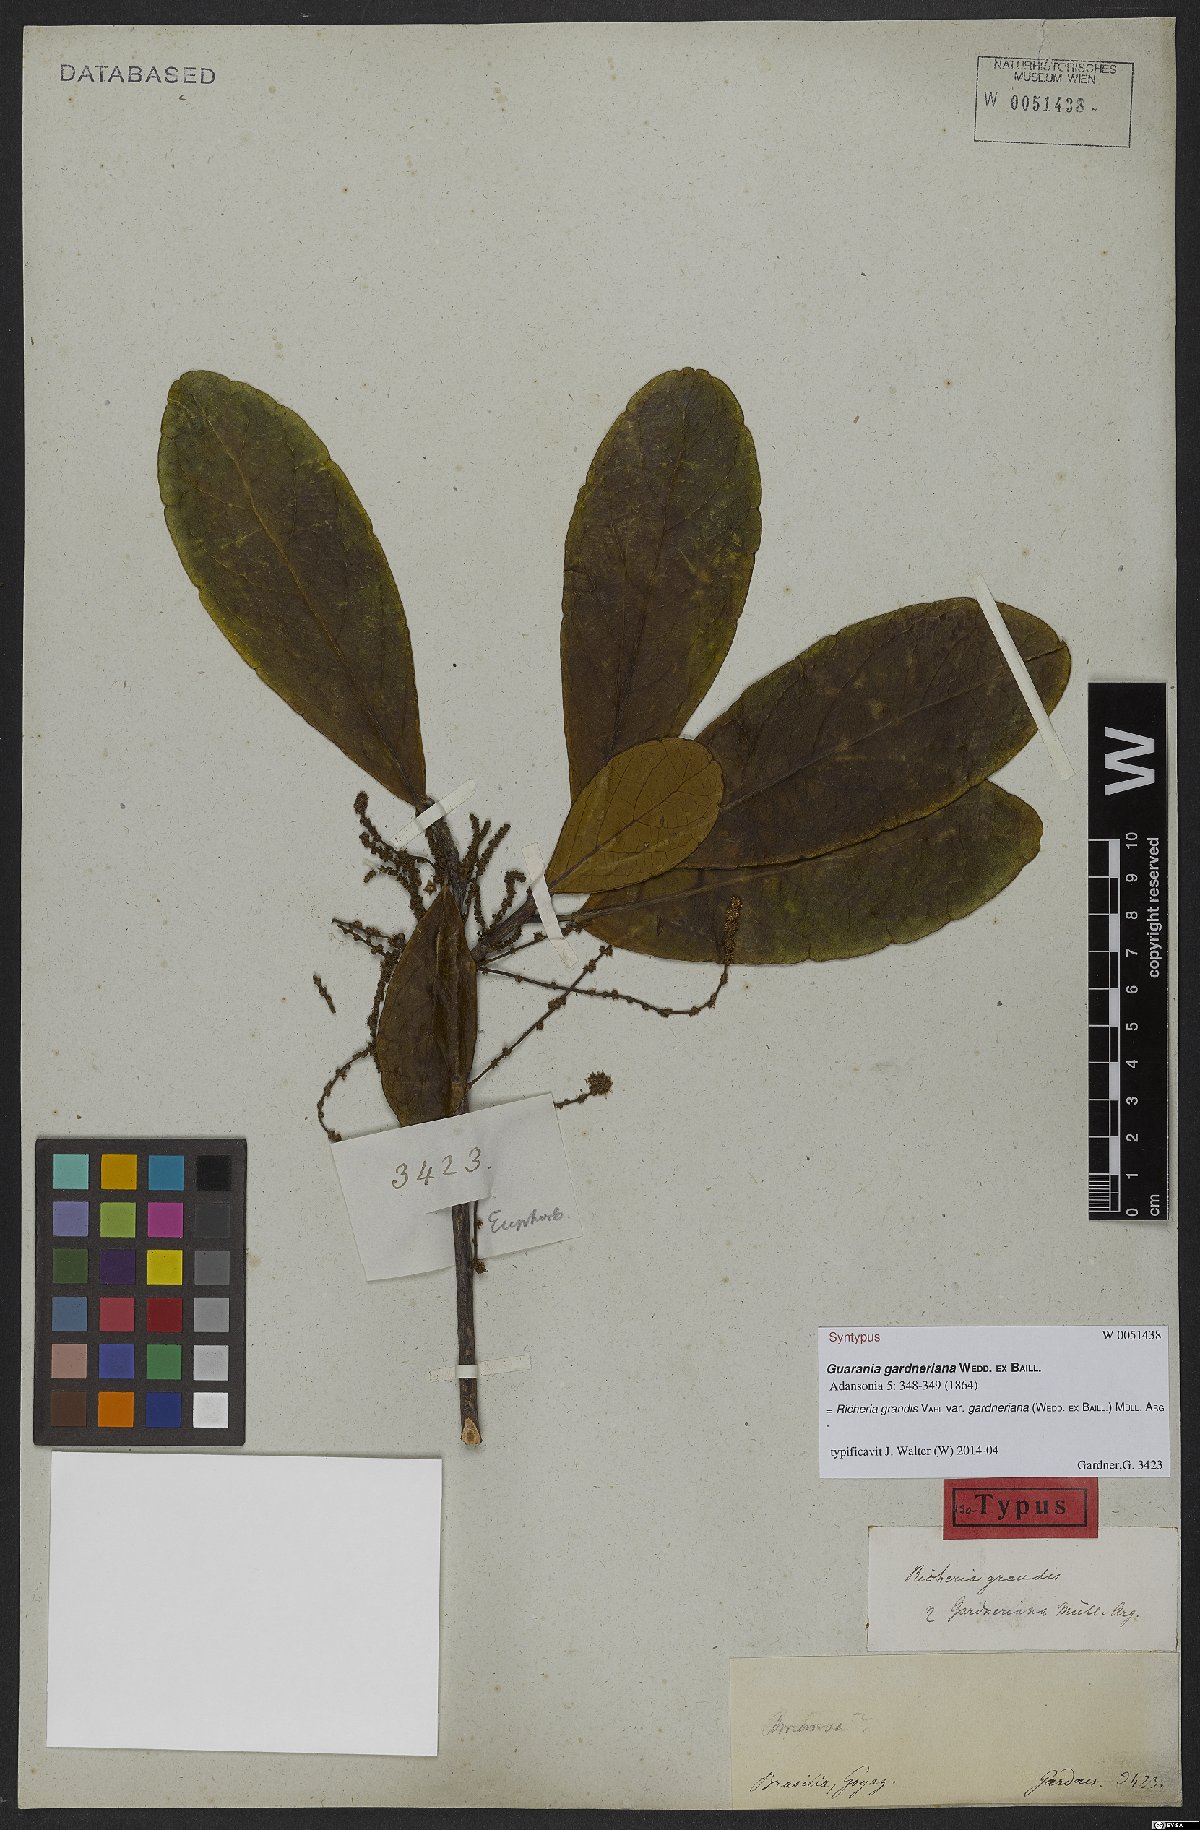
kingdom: Plantae
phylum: Tracheophyta
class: Magnoliopsida
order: Malpighiales
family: Phyllanthaceae
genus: Richeria
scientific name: Richeria grandis
